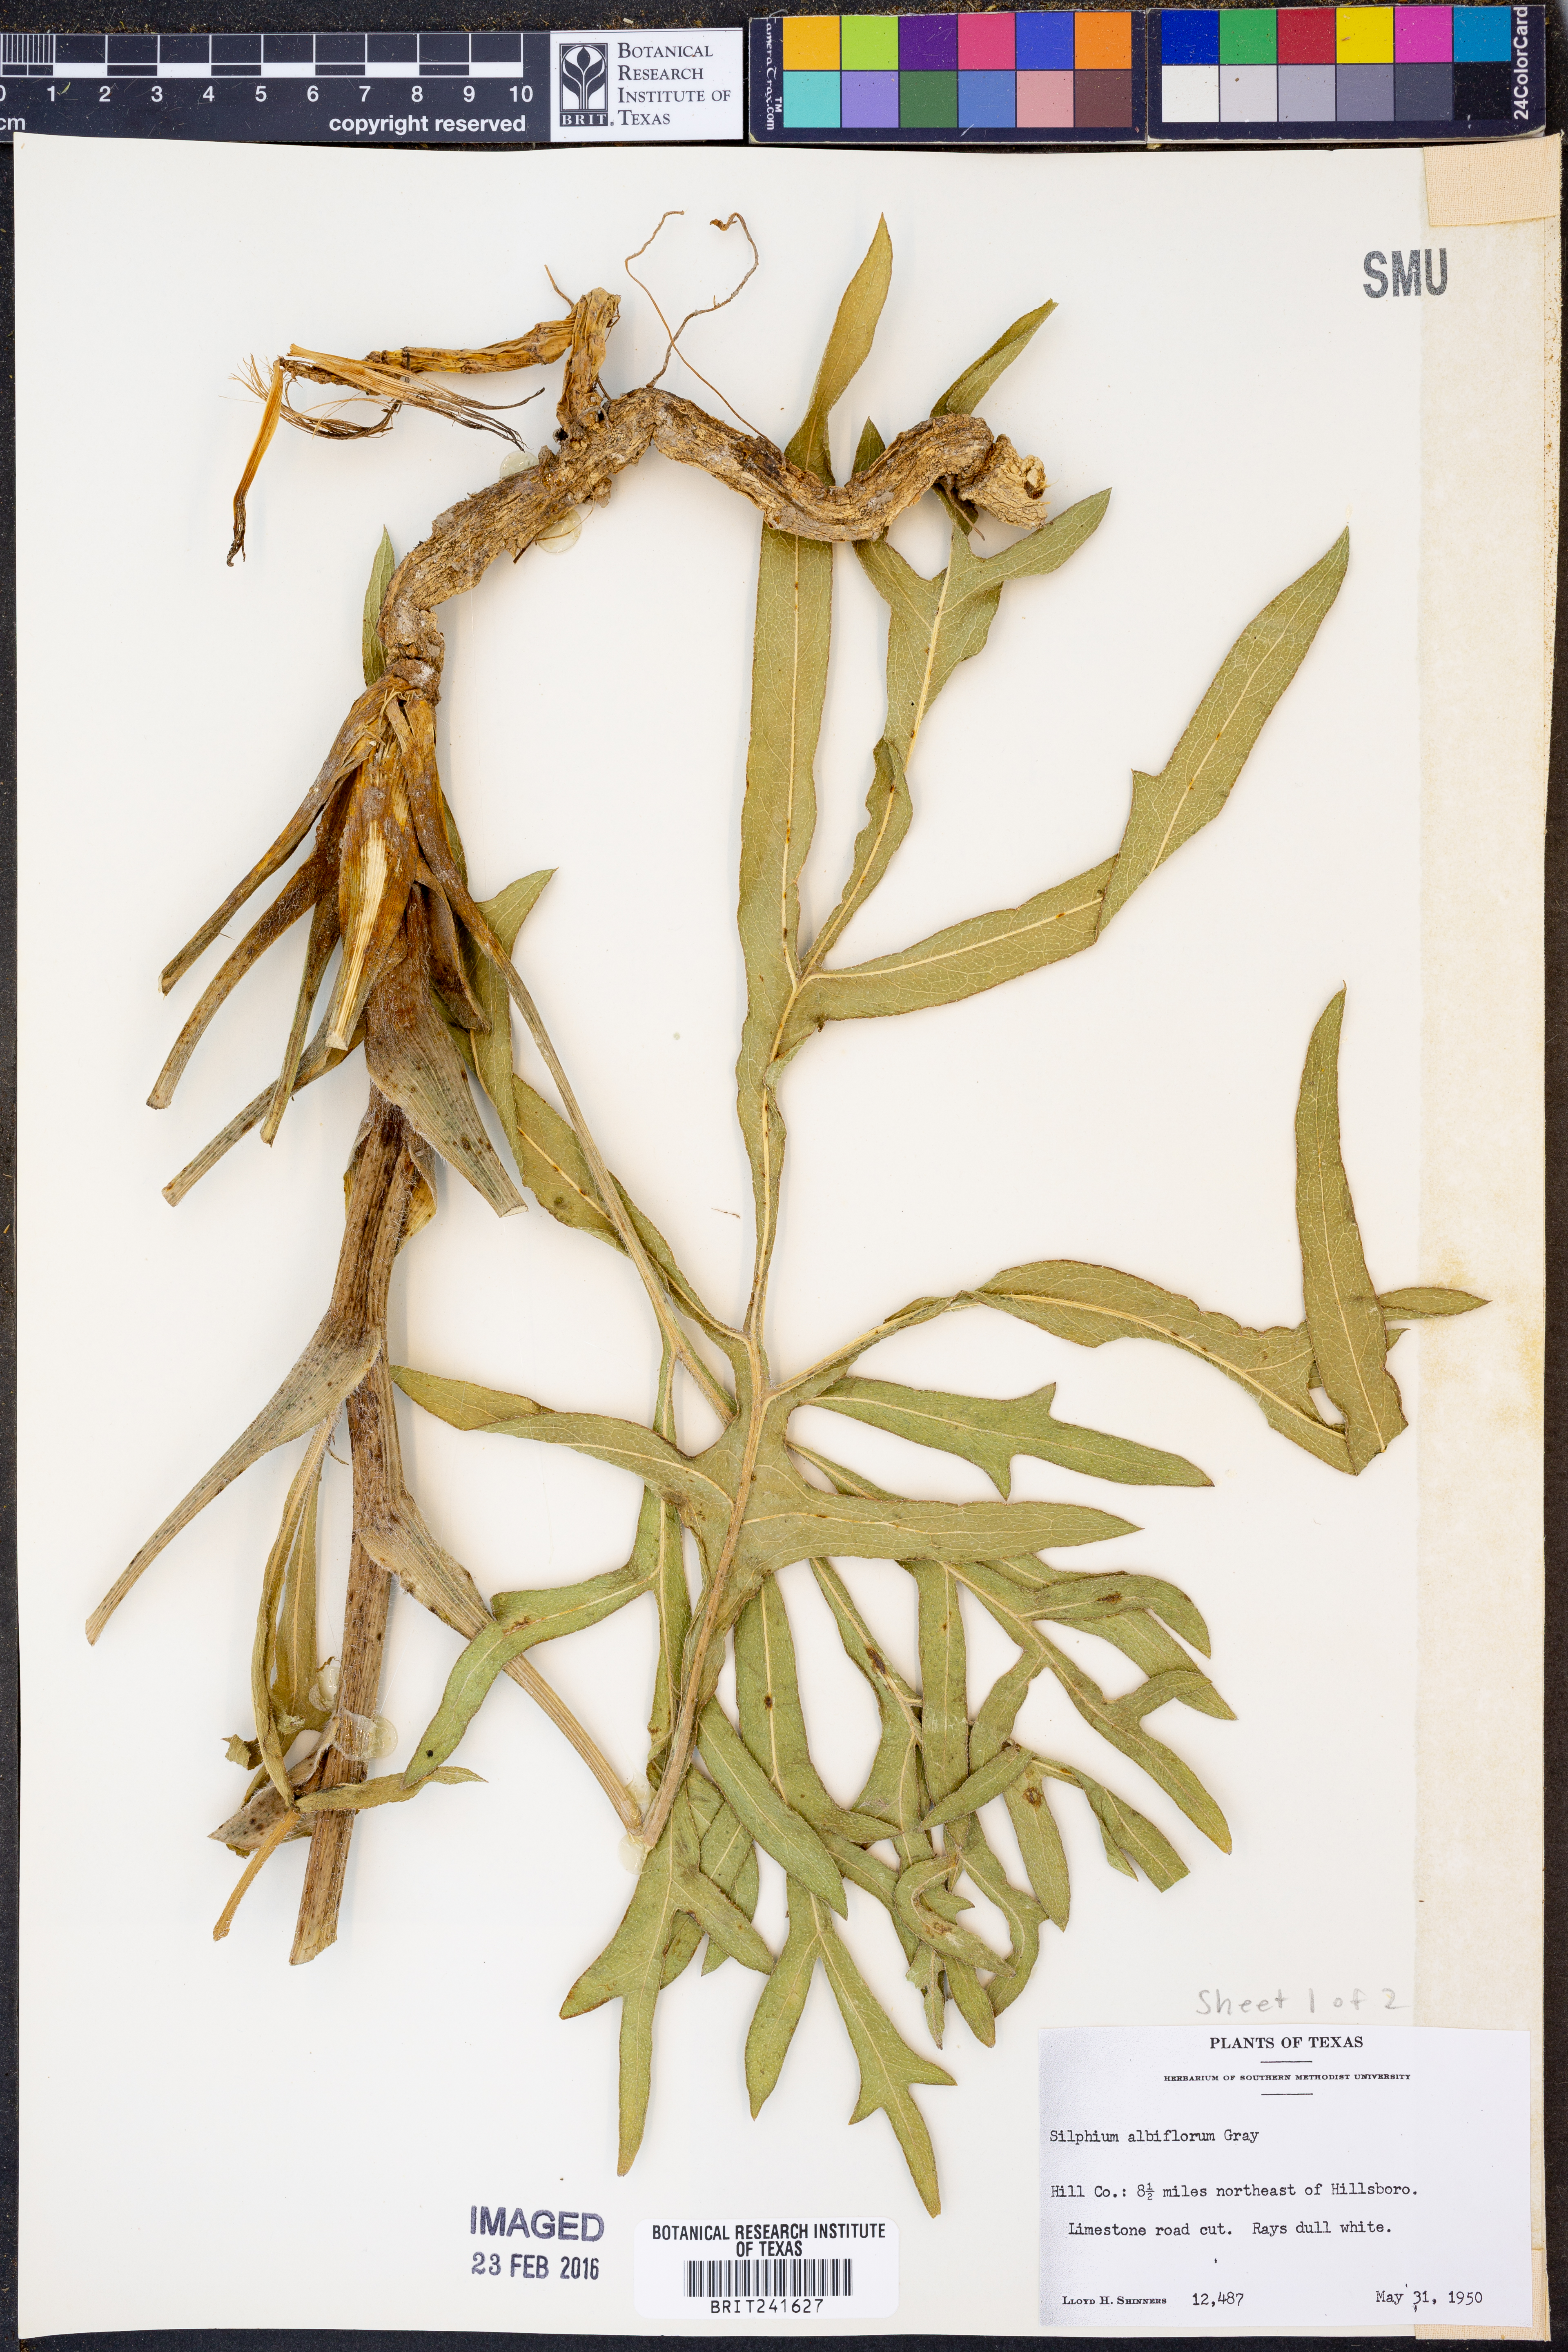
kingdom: Plantae
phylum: Tracheophyta
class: Magnoliopsida
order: Asterales
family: Asteraceae
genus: Silphium
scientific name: Silphium albiflorum
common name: White rosinweed
